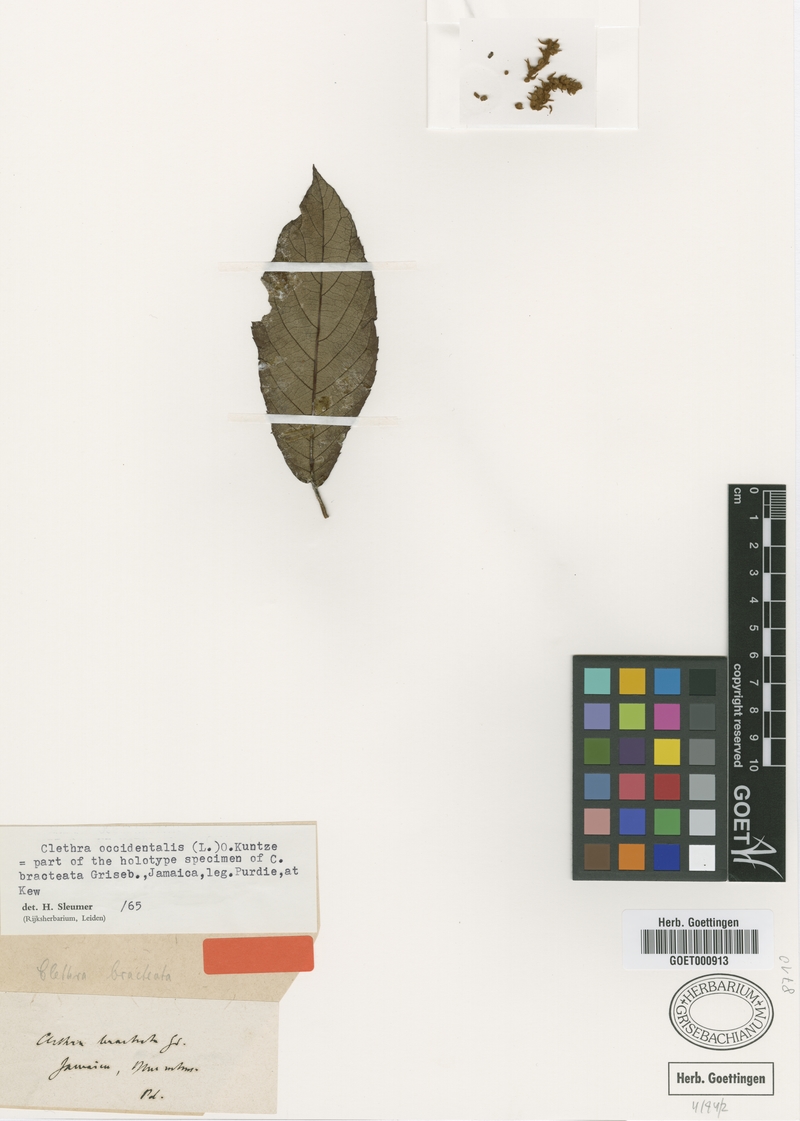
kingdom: Plantae
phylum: Tracheophyta
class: Magnoliopsida
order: Ericales
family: Clethraceae
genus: Clethra
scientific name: Clethra occidentalis
